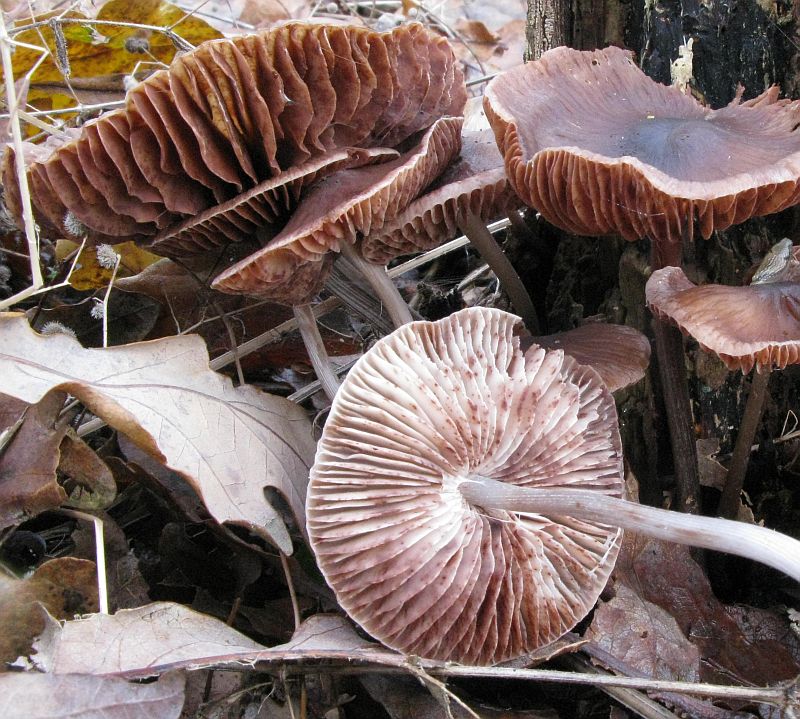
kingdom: Fungi
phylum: Basidiomycota
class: Agaricomycetes
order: Agaricales
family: Mycenaceae
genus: Mycena
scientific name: Mycena polygramma
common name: mangestribet huesvamp
